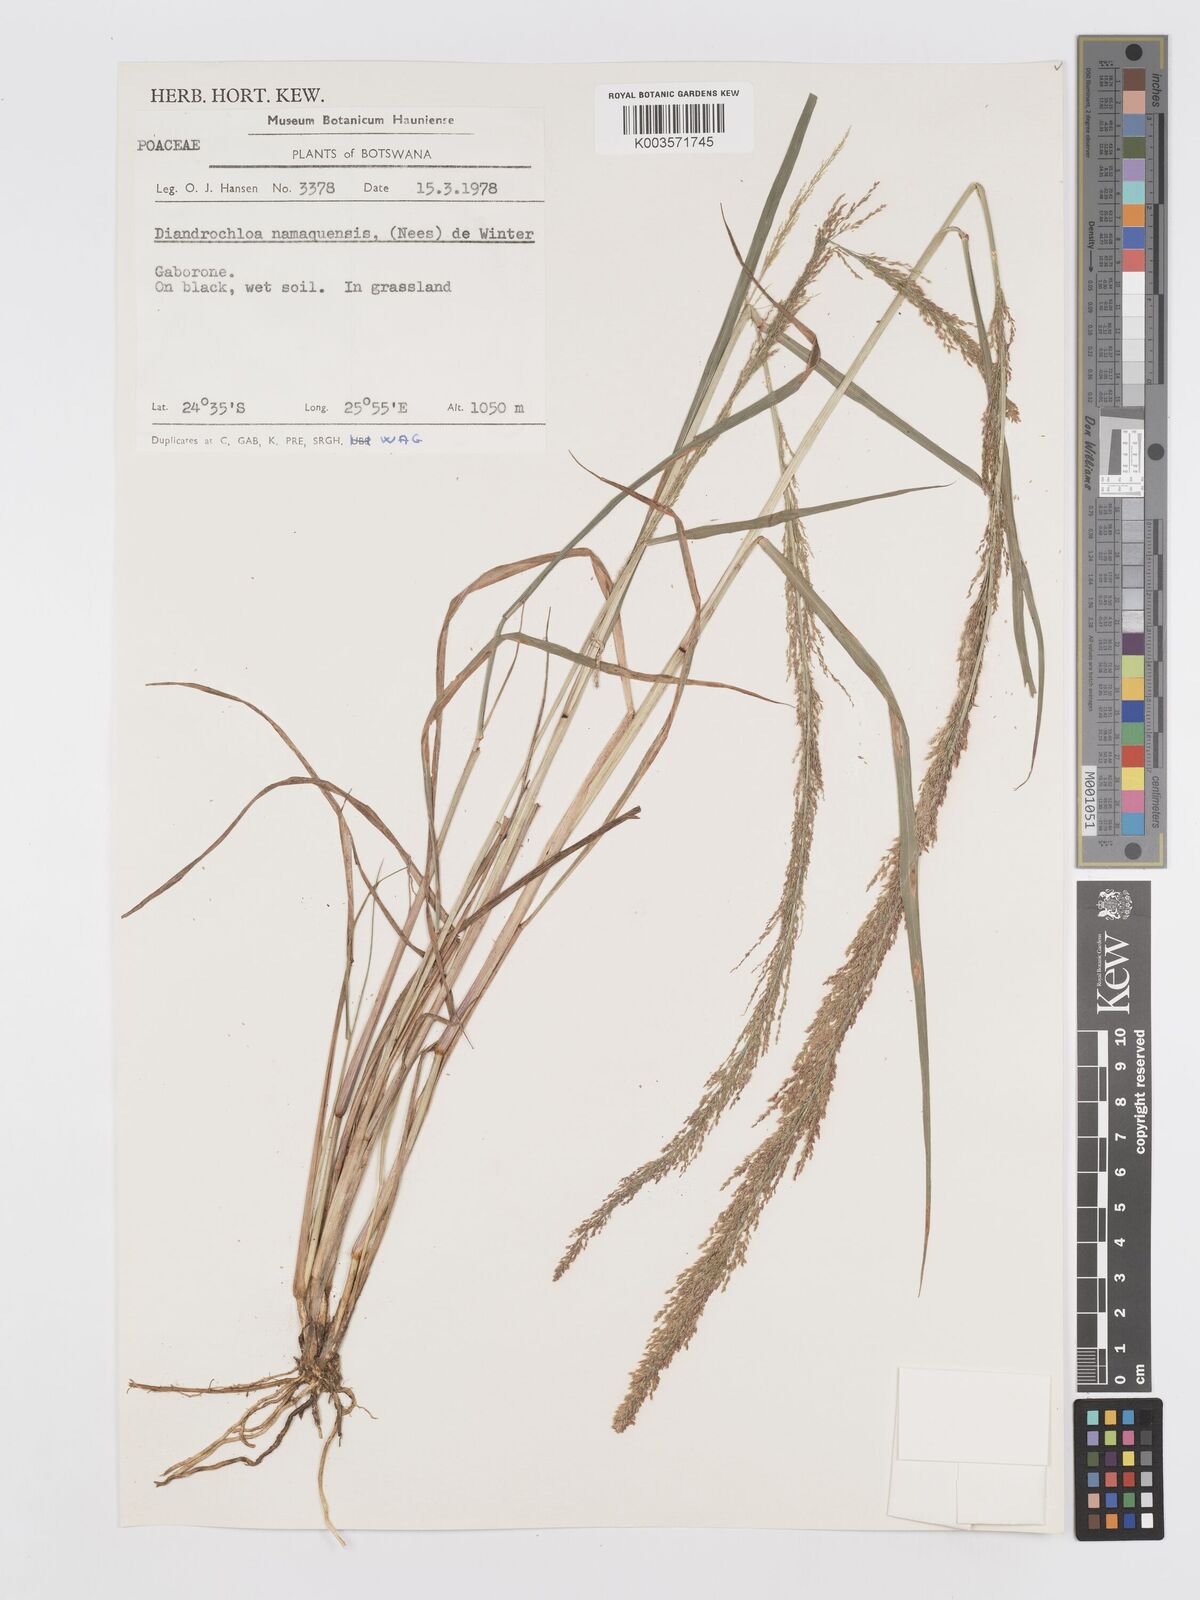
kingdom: Plantae
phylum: Tracheophyta
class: Liliopsida
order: Poales
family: Poaceae
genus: Eragrostis
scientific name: Eragrostis japonica
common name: Pond lovegrass
